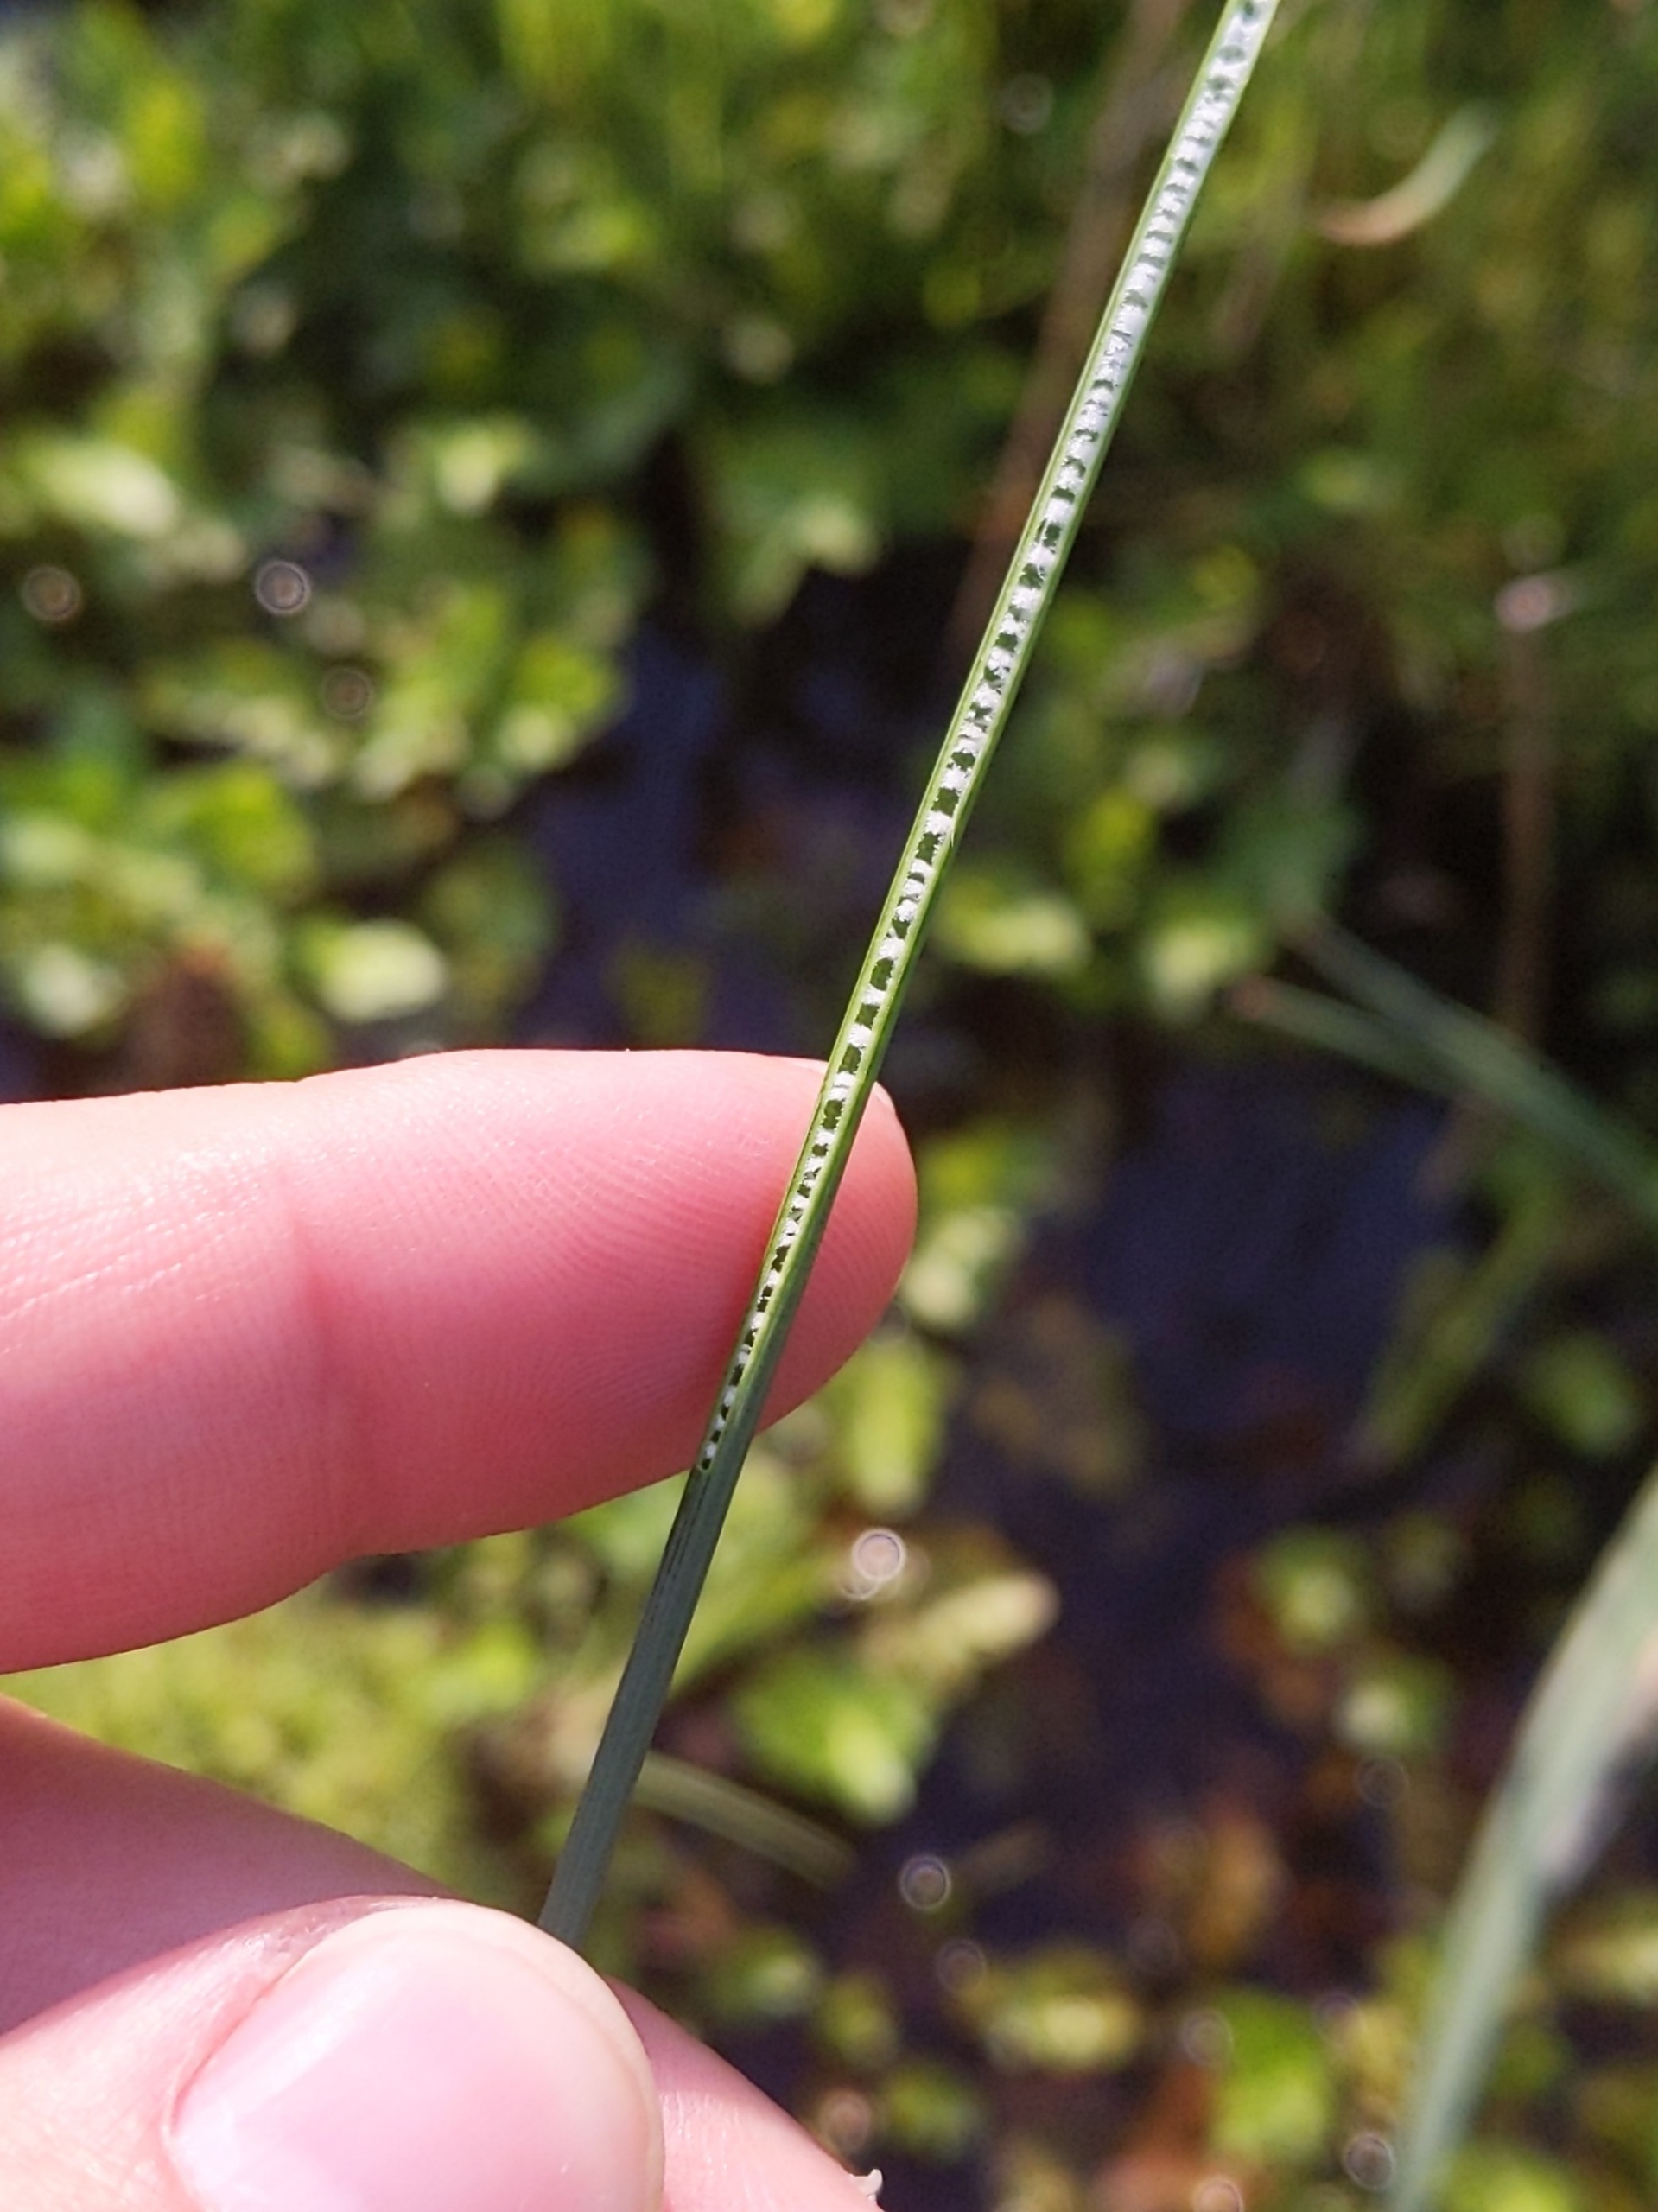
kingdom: Plantae
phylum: Tracheophyta
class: Liliopsida
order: Poales
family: Juncaceae
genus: Juncus
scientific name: Juncus inflexus
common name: Blågrå siv
